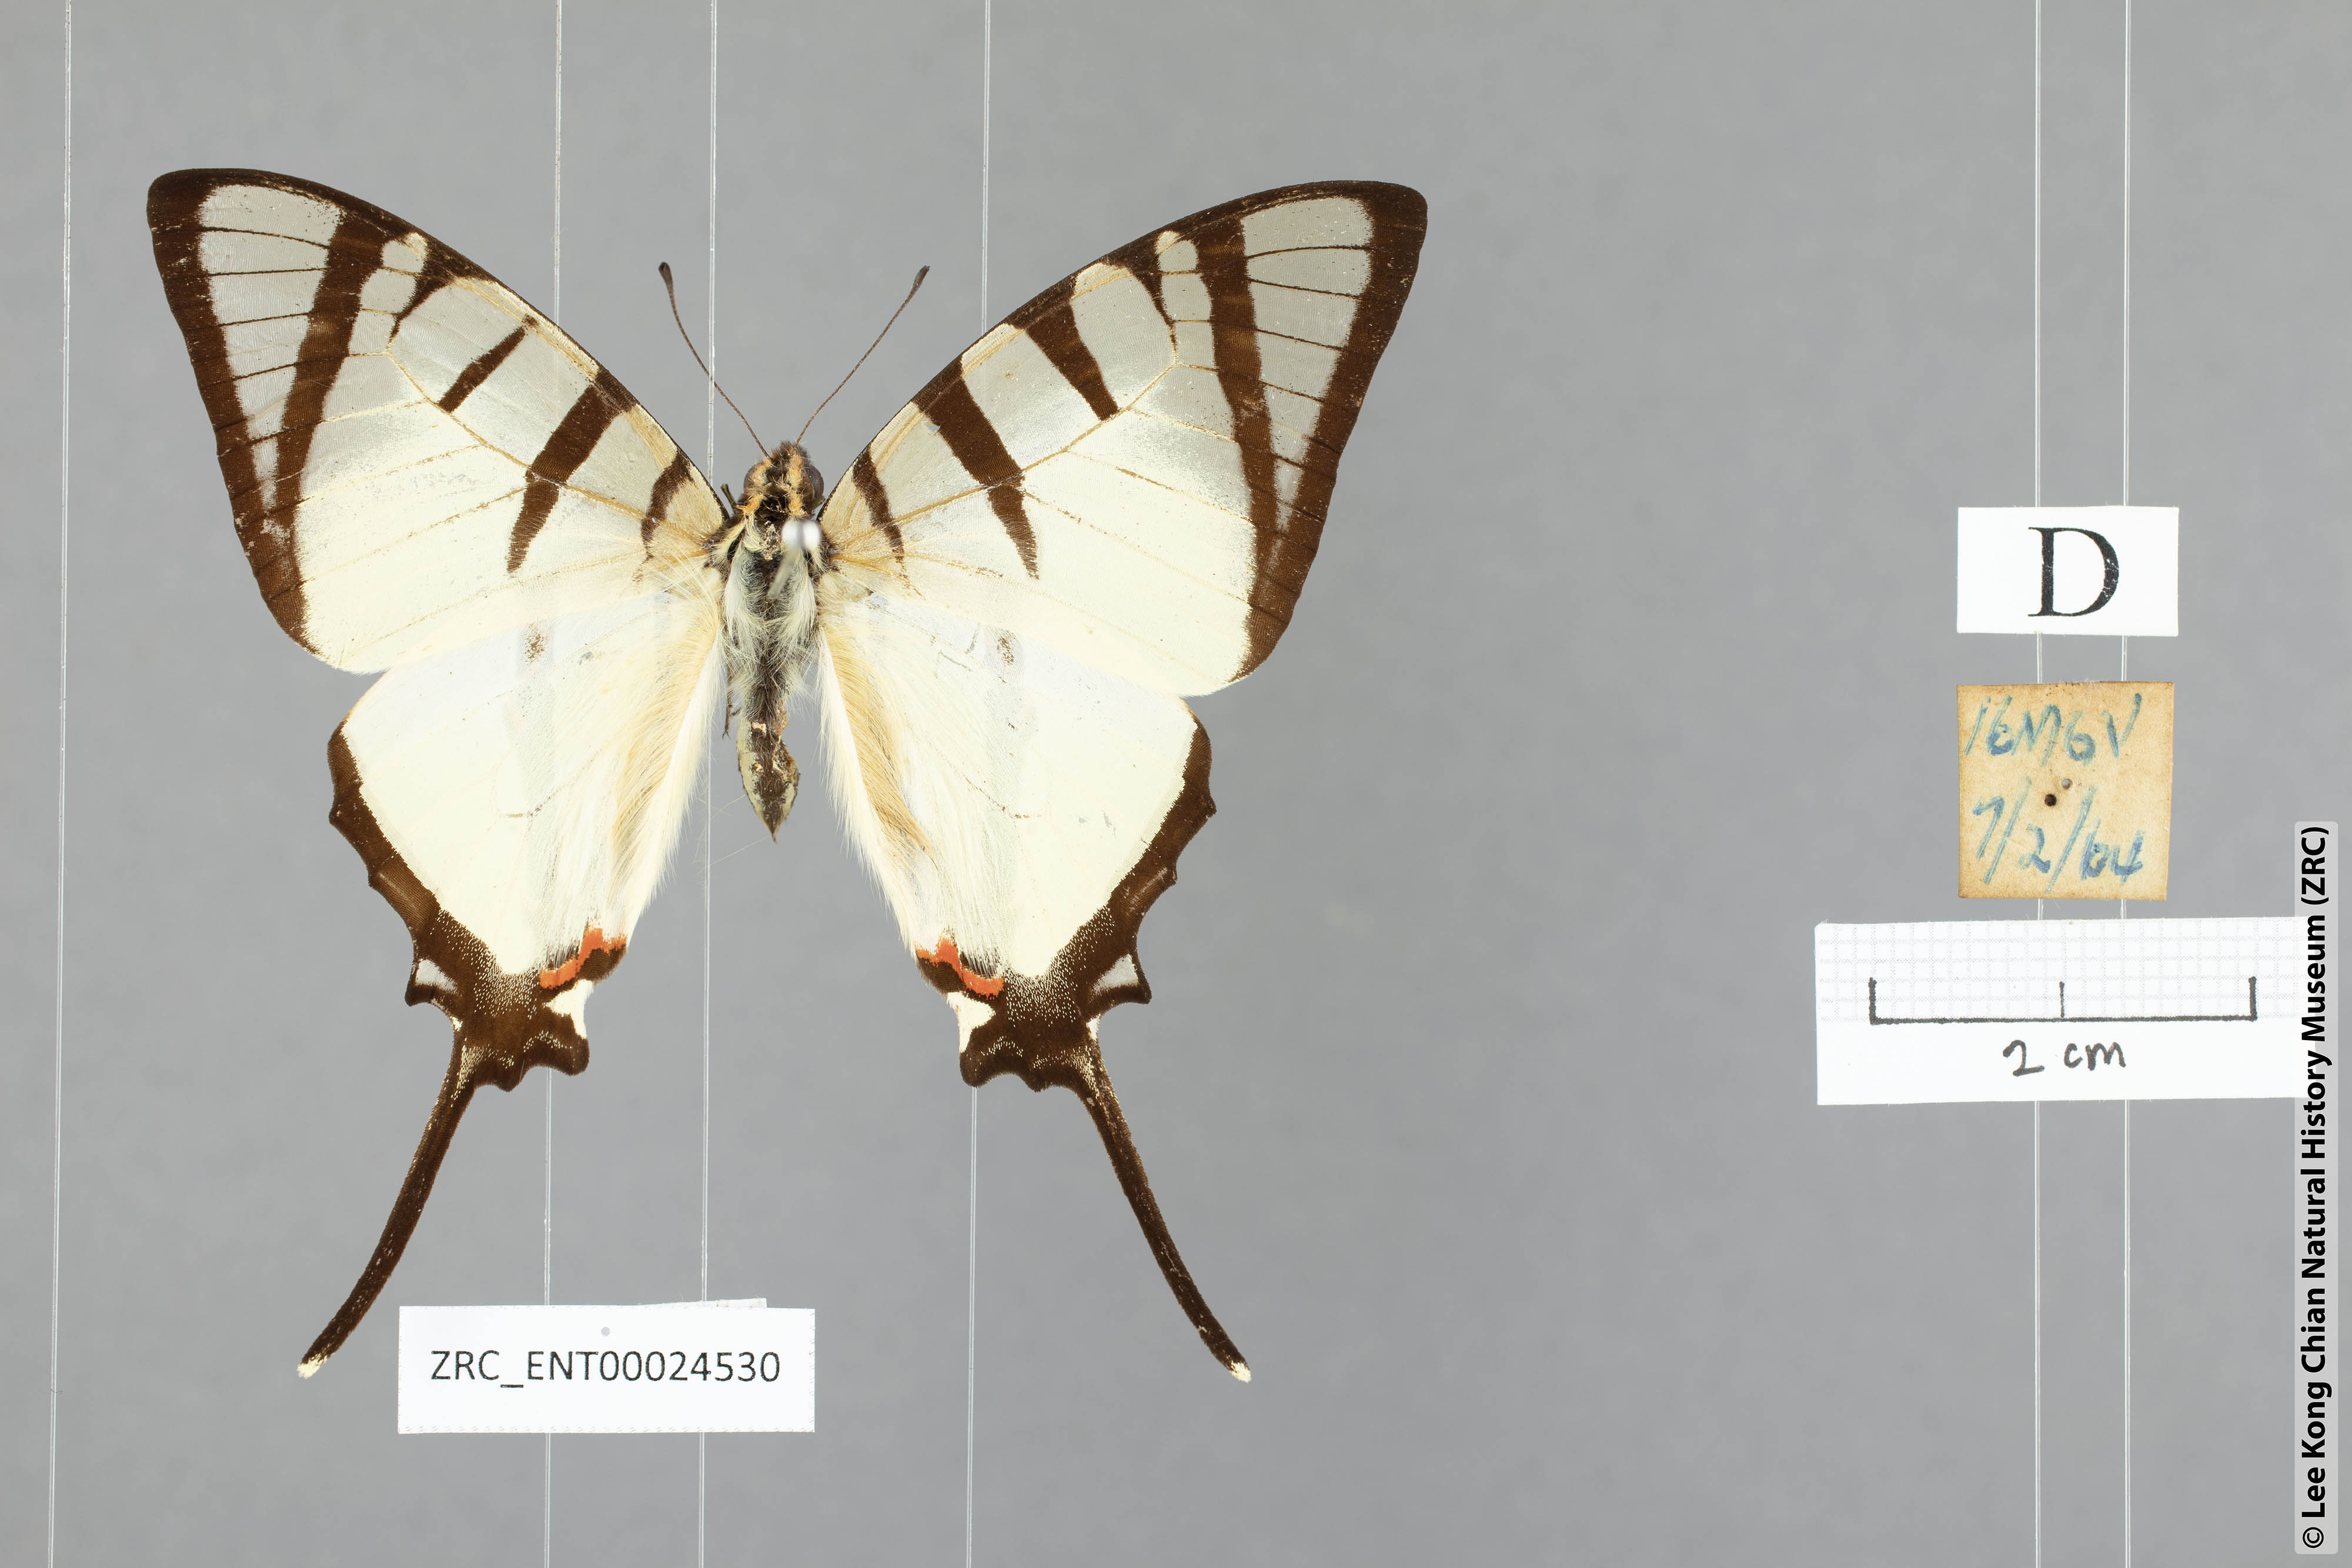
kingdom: Animalia
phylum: Arthropoda
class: Insecta
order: Lepidoptera
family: Papilionidae
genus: Graphium
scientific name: Graphium agetes
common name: Fourbar swordtail
